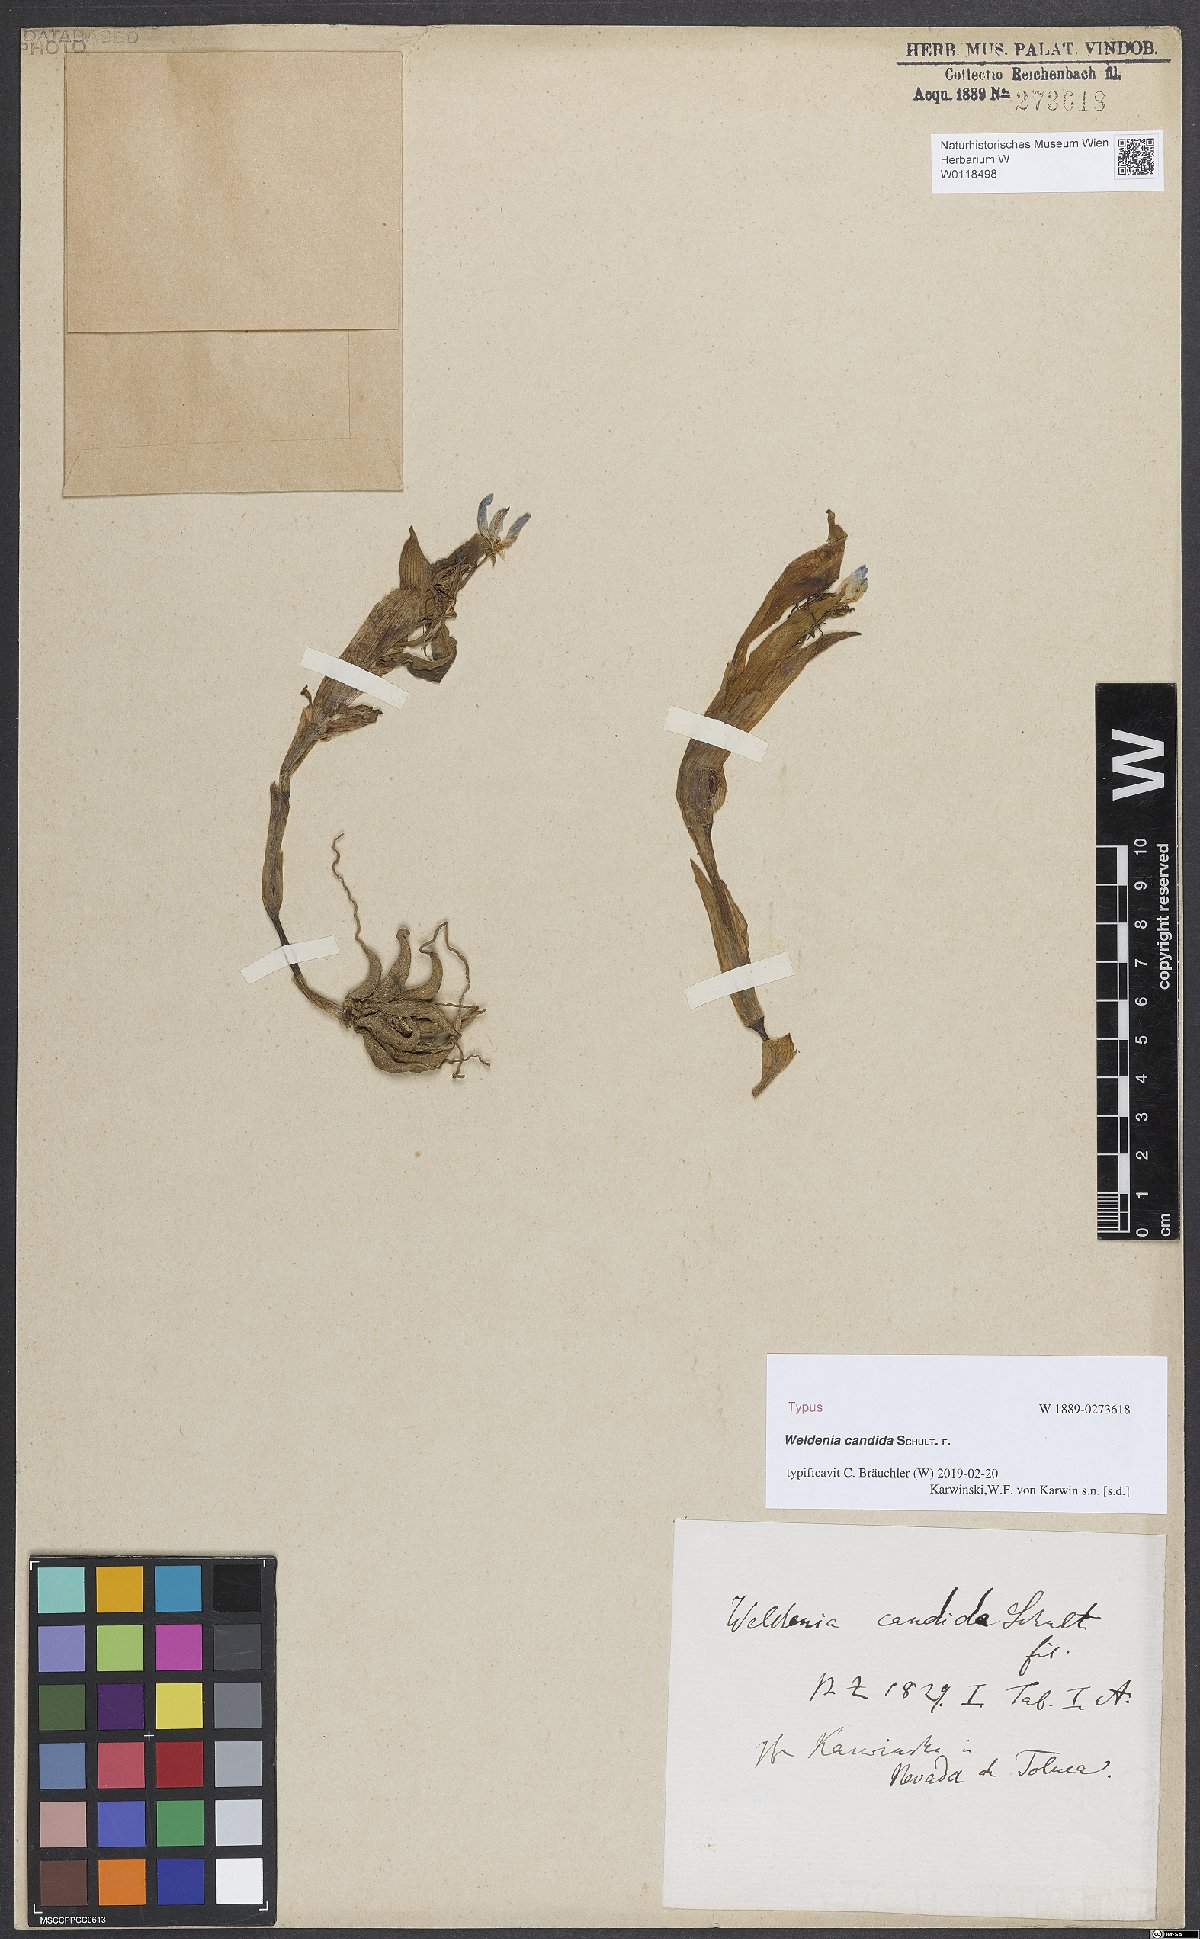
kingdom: Plantae
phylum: Tracheophyta
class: Liliopsida
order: Commelinales
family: Commelinaceae
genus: Weldenia
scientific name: Weldenia candida
